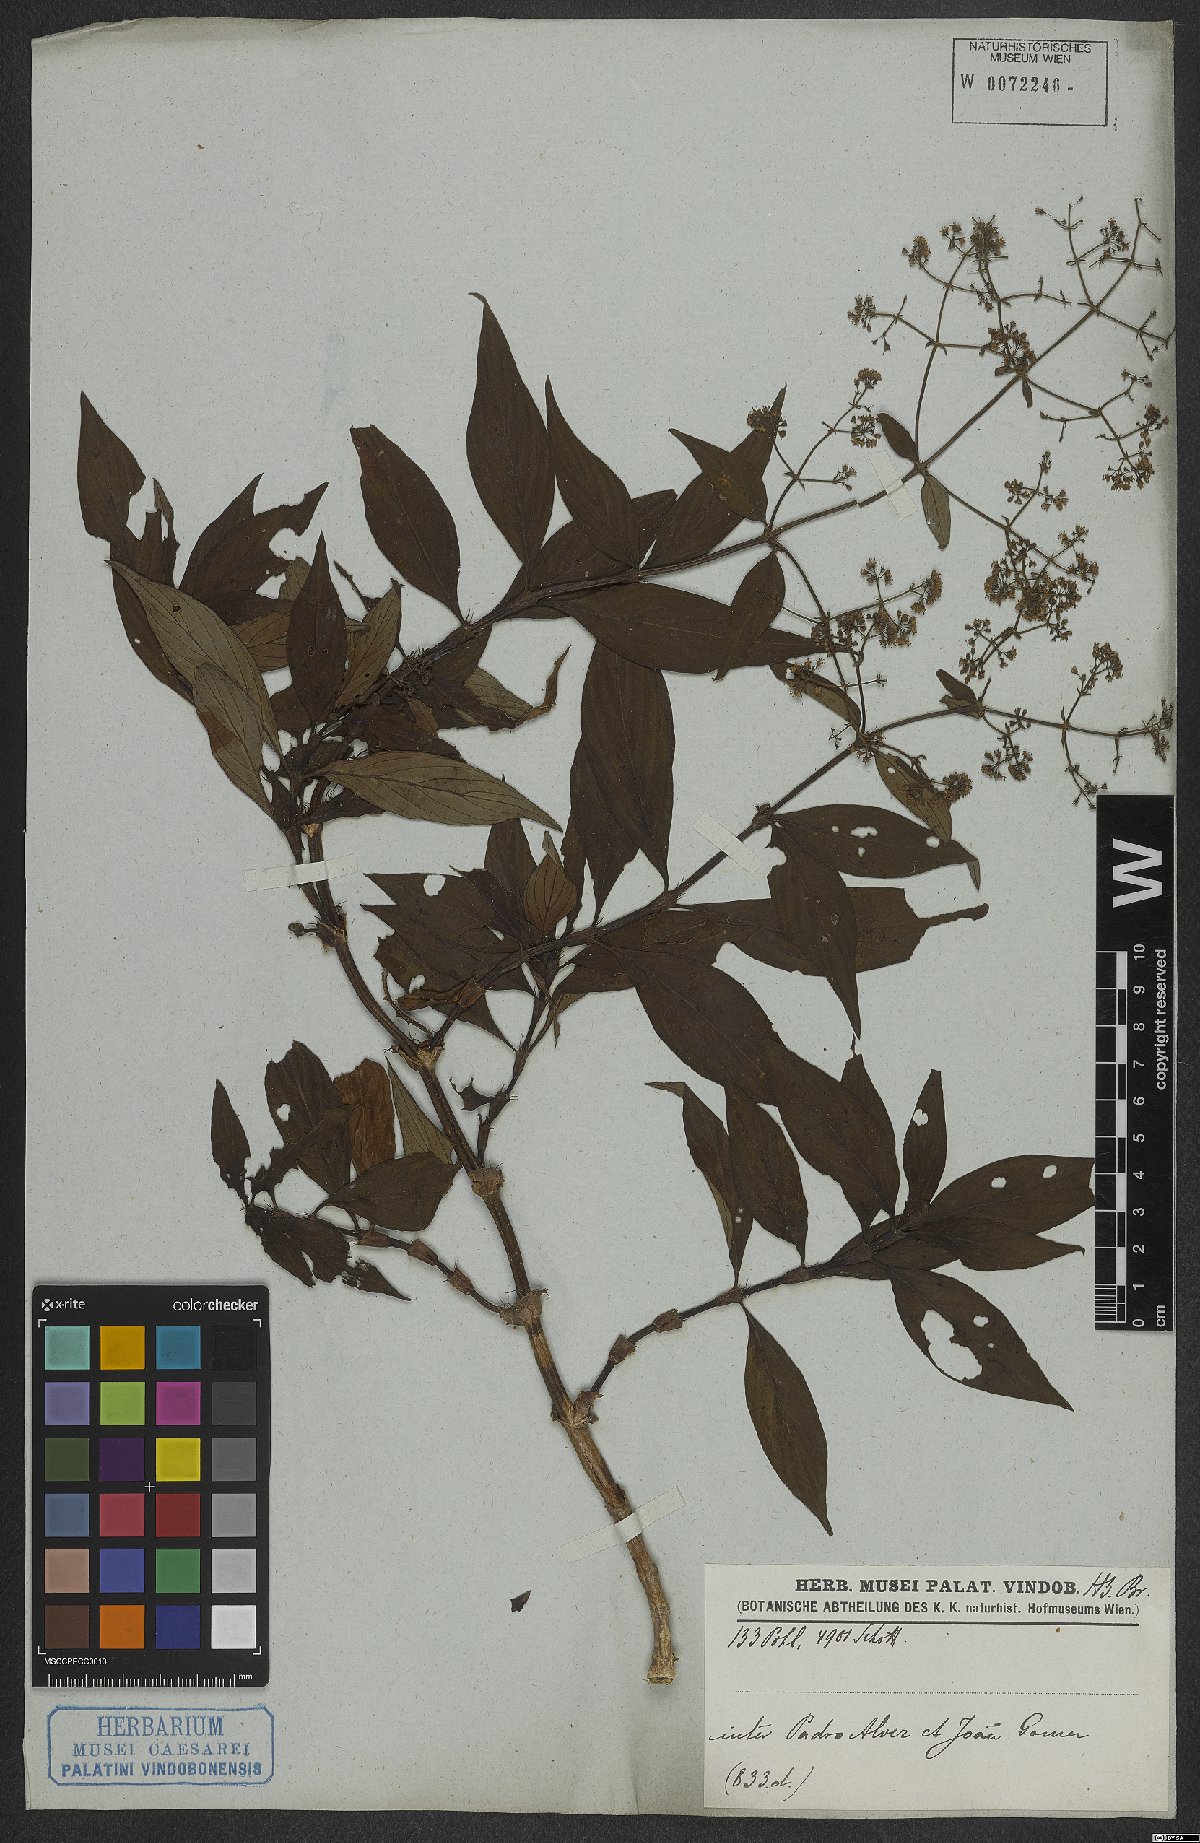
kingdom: Plantae
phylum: Tracheophyta
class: Magnoliopsida
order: Gentianales
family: Rubiaceae
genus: Emmeorhiza
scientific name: Emmeorhiza
